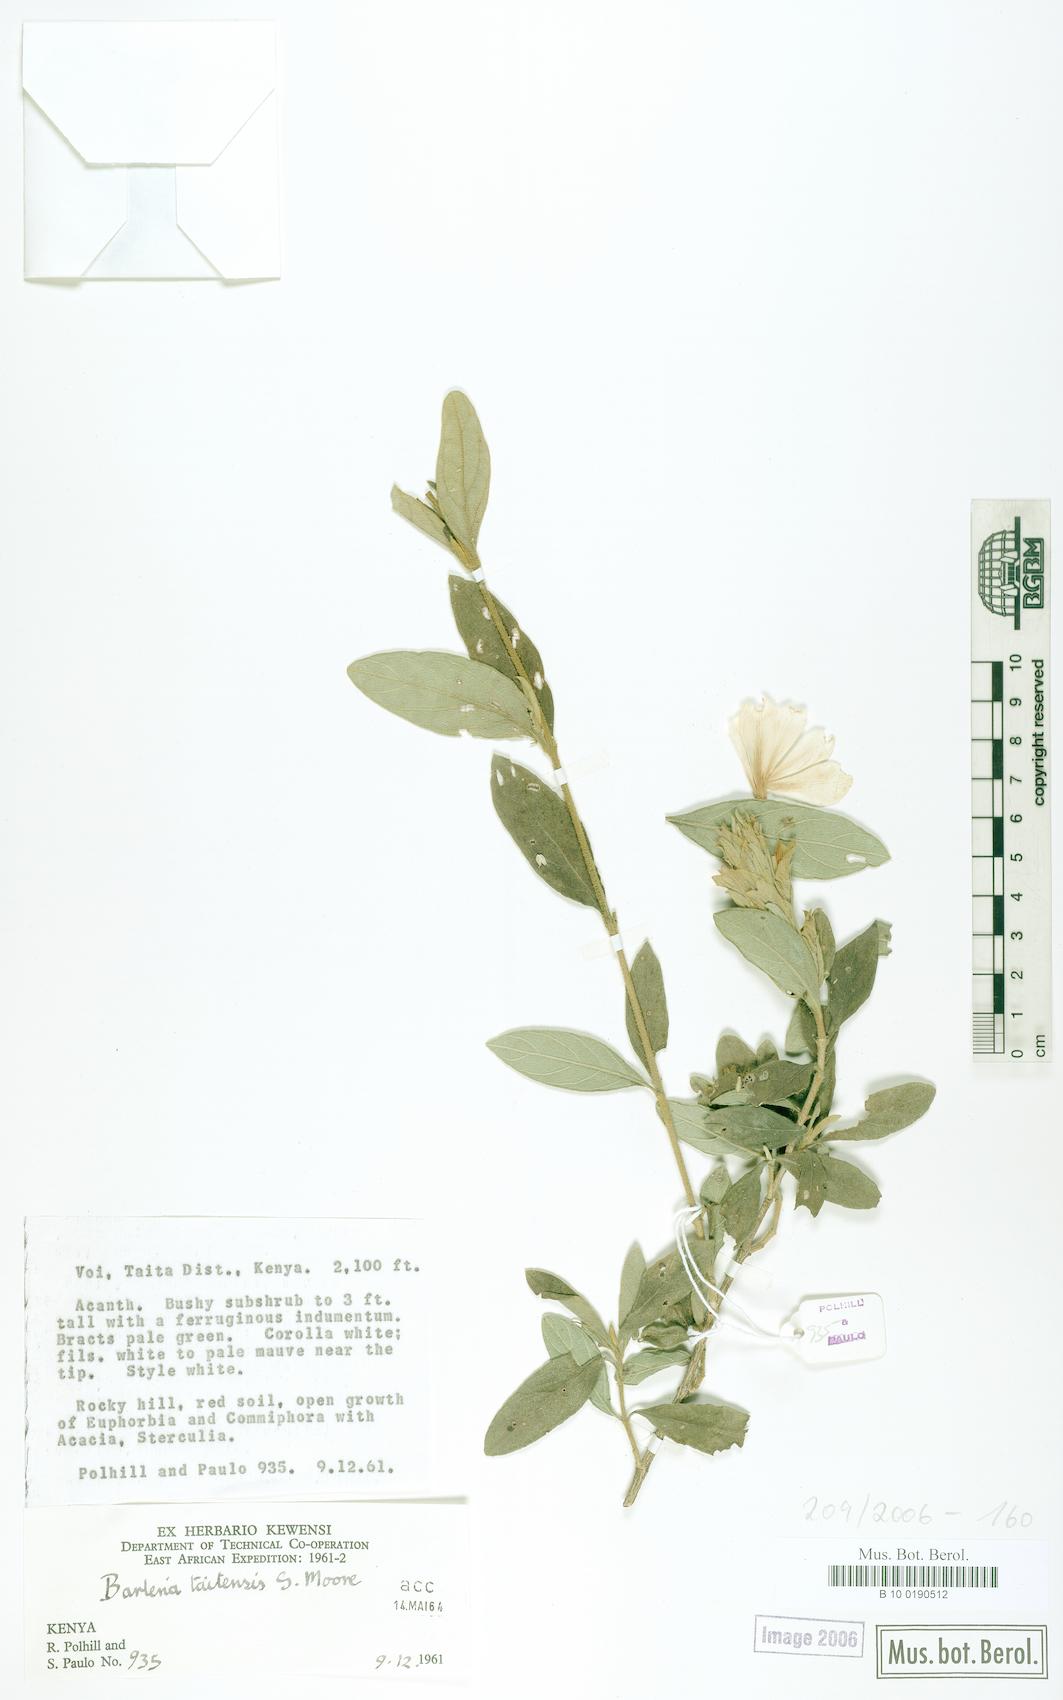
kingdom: Plantae
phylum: Tracheophyta
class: Magnoliopsida
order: Lamiales
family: Acanthaceae
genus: Barleria
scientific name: Barleria taitensis
